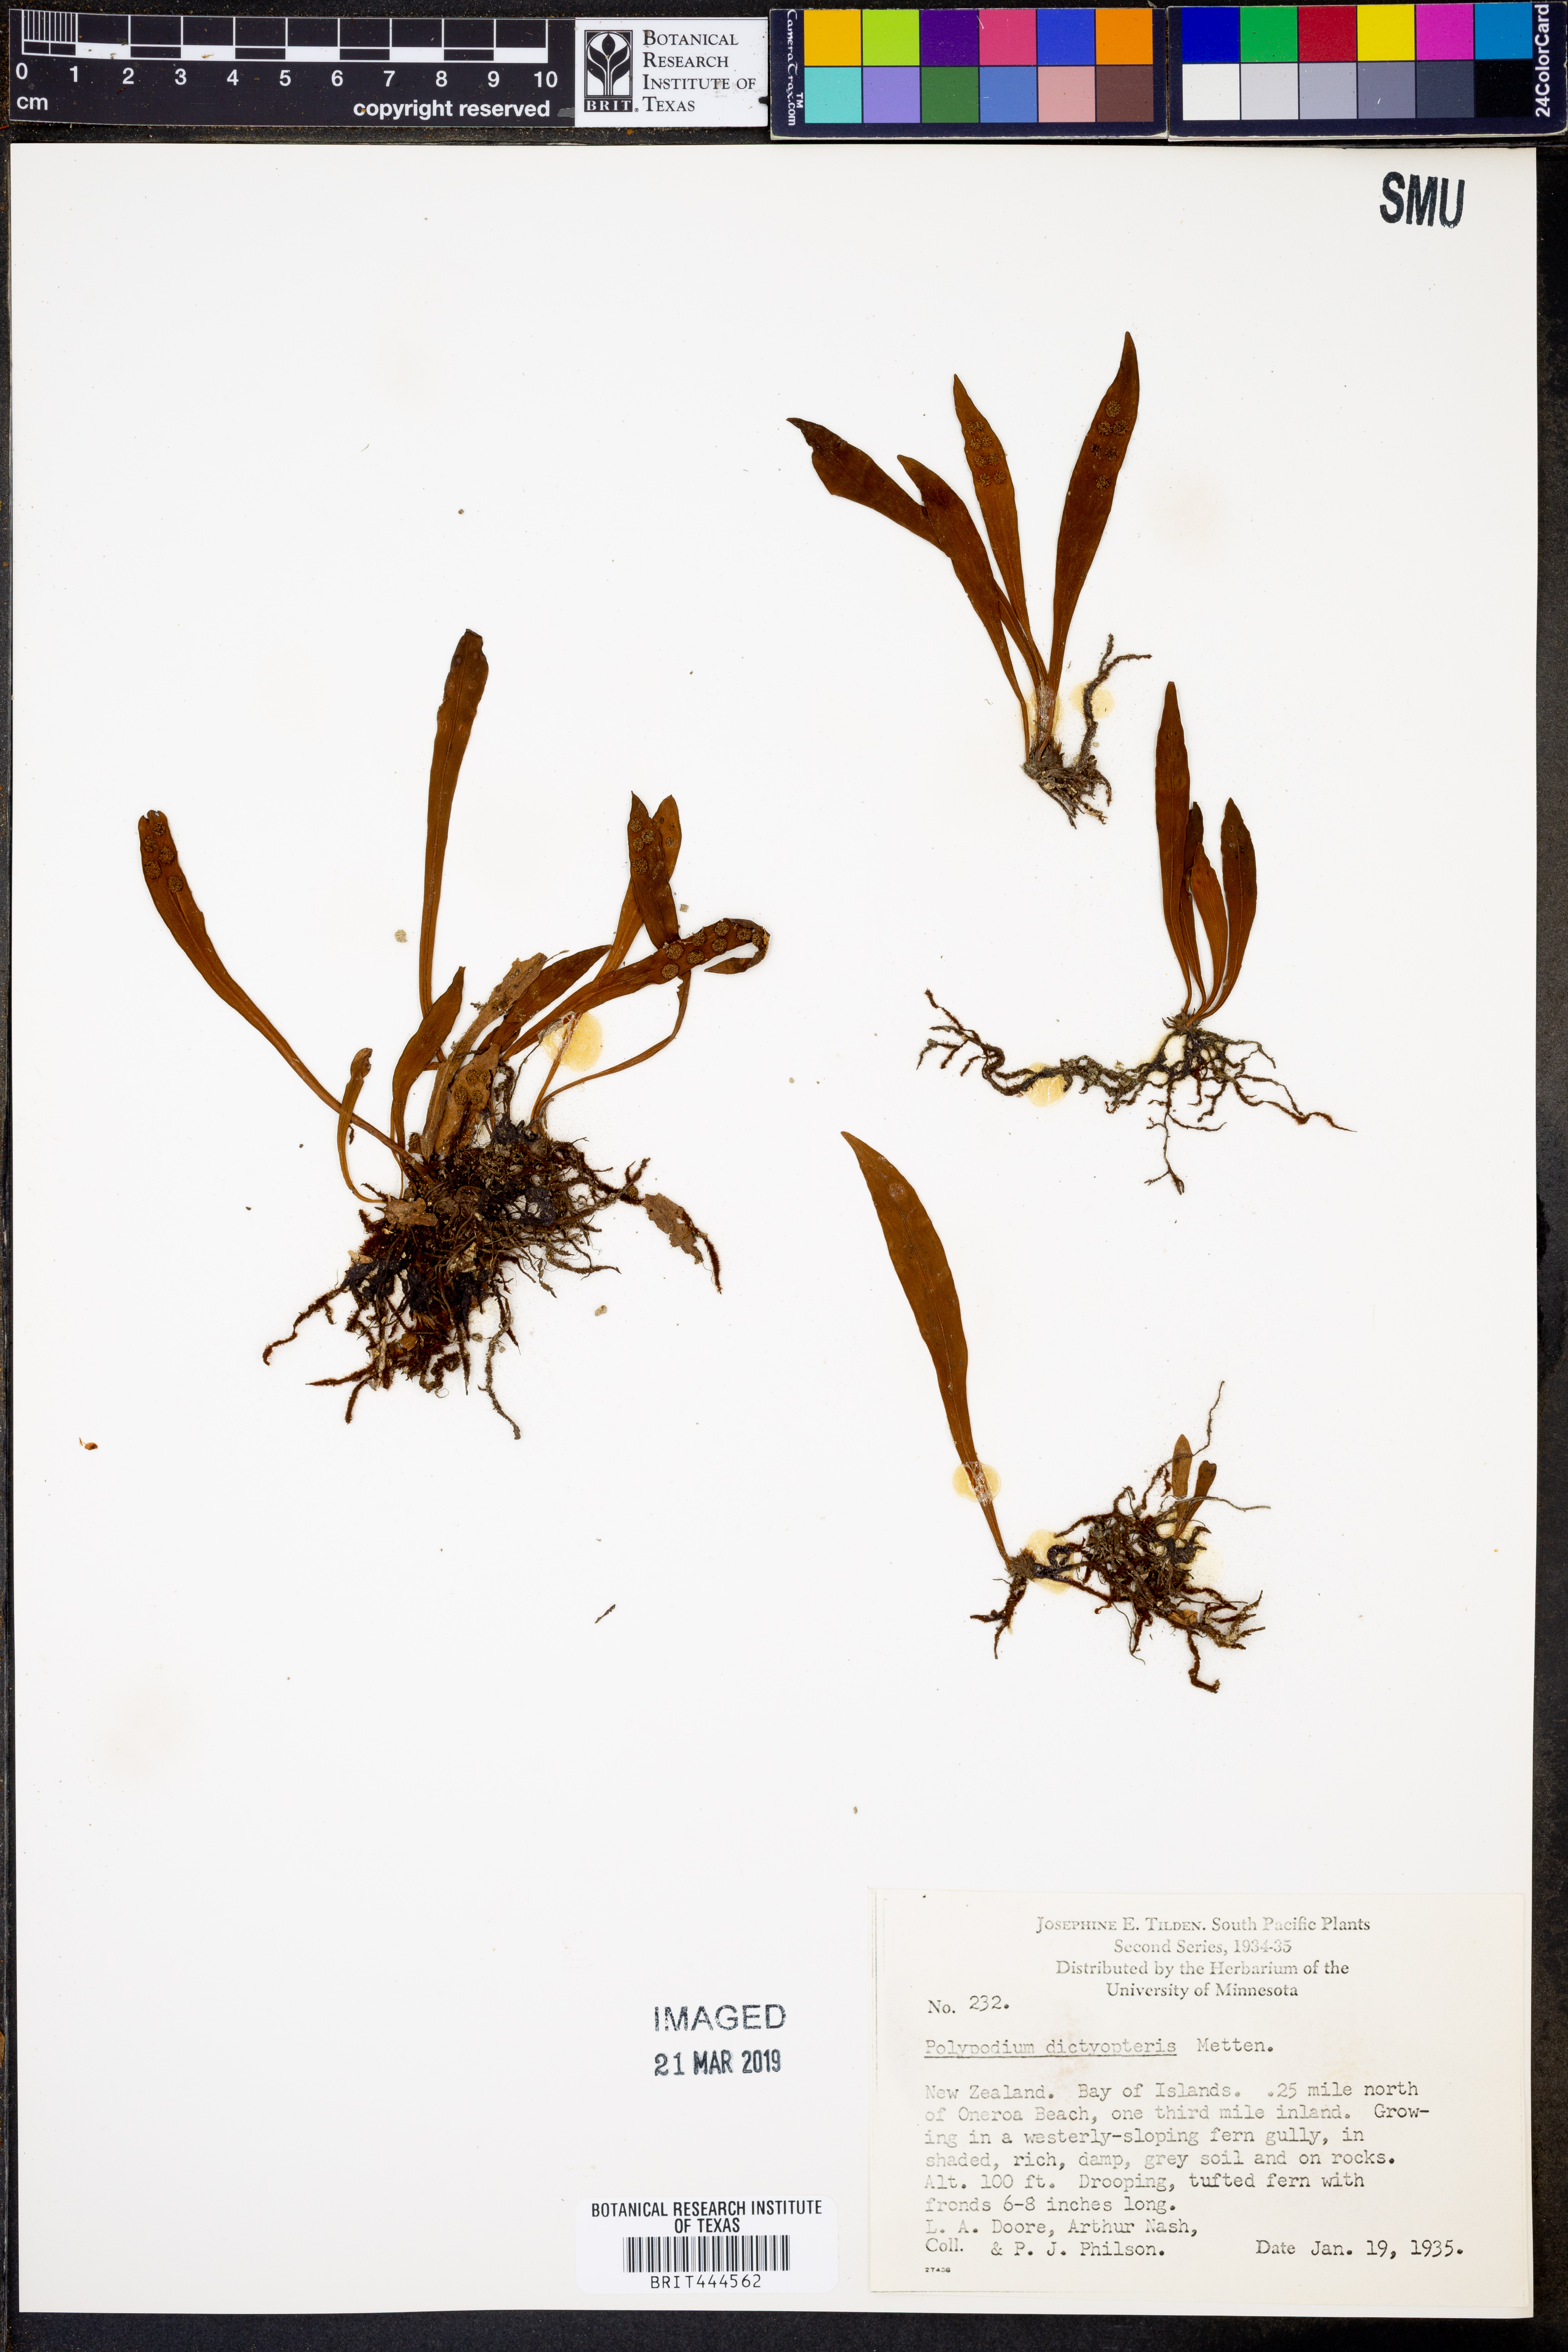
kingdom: Plantae
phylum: Tracheophyta
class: Polypodiopsida
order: Polypodiales
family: Polypodiaceae
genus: Loxogramme
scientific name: Loxogramme dictyopteris
